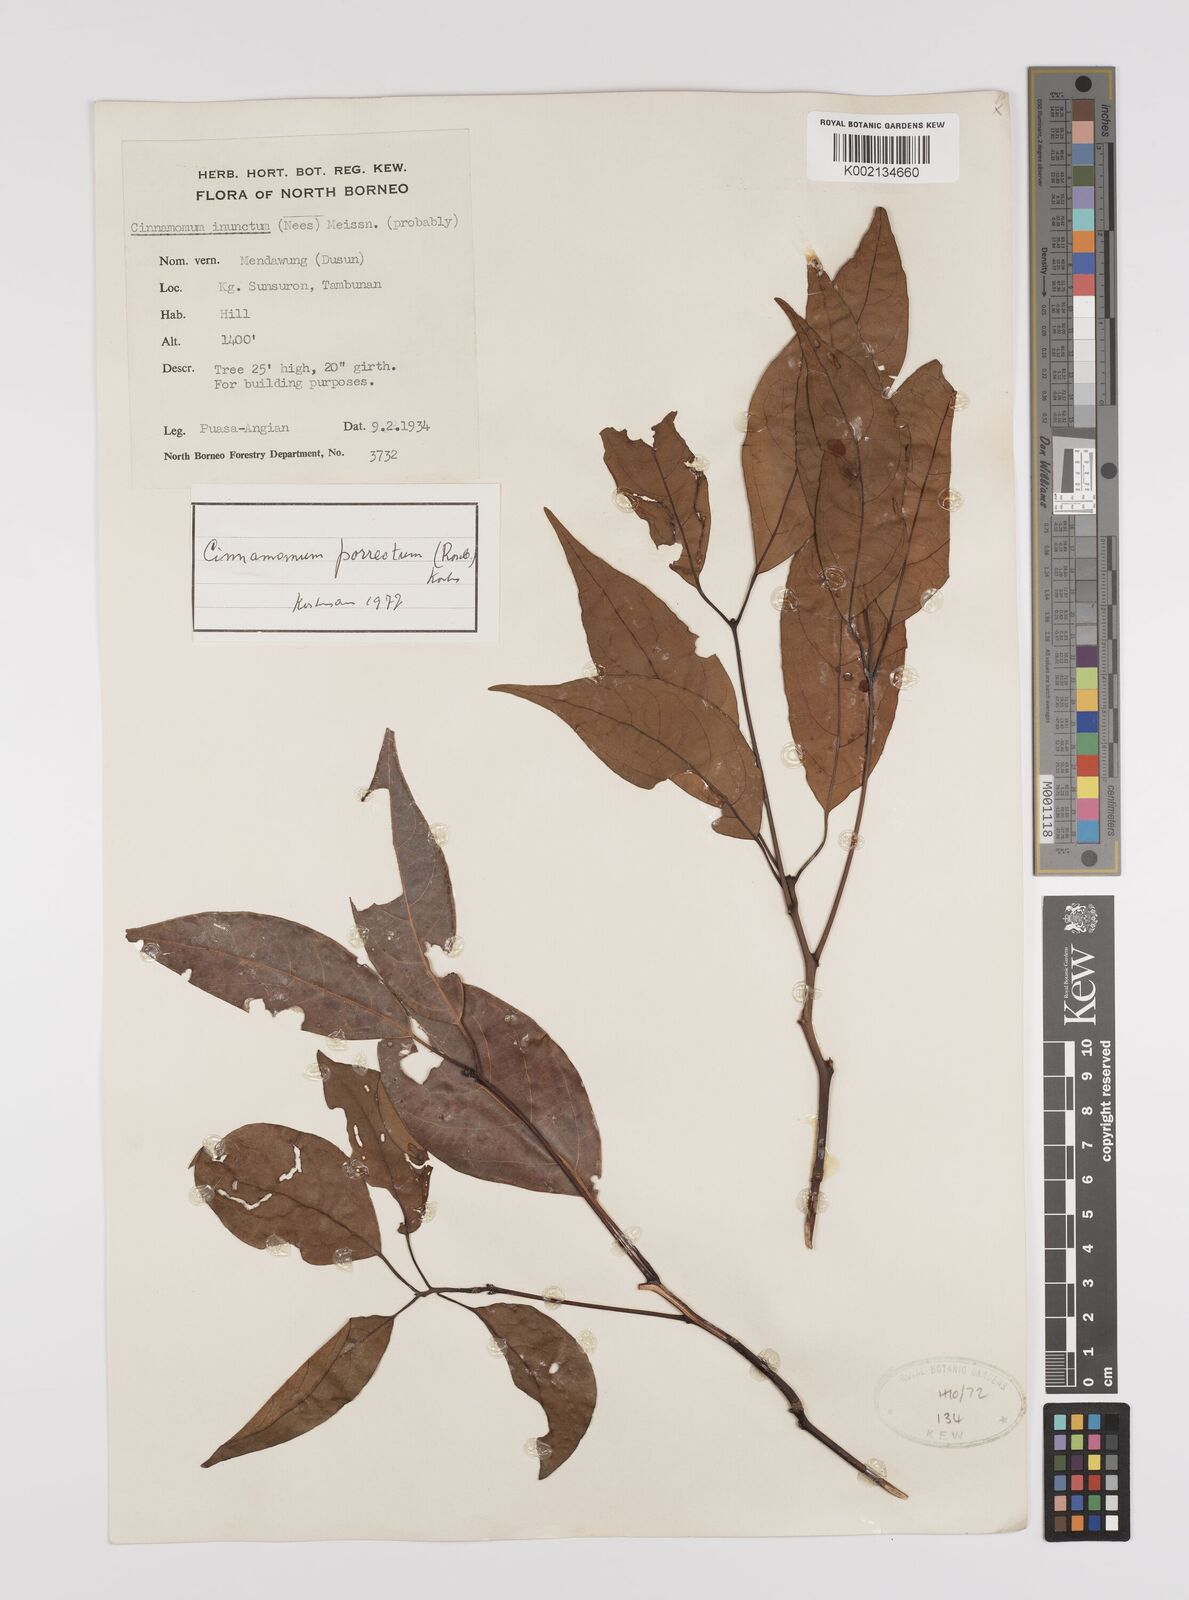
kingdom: Plantae
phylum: Tracheophyta
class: Magnoliopsida
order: Laurales
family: Lauraceae
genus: Cinnamomum
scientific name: Cinnamomum parthenoxylon
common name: Martaban camphor wood
